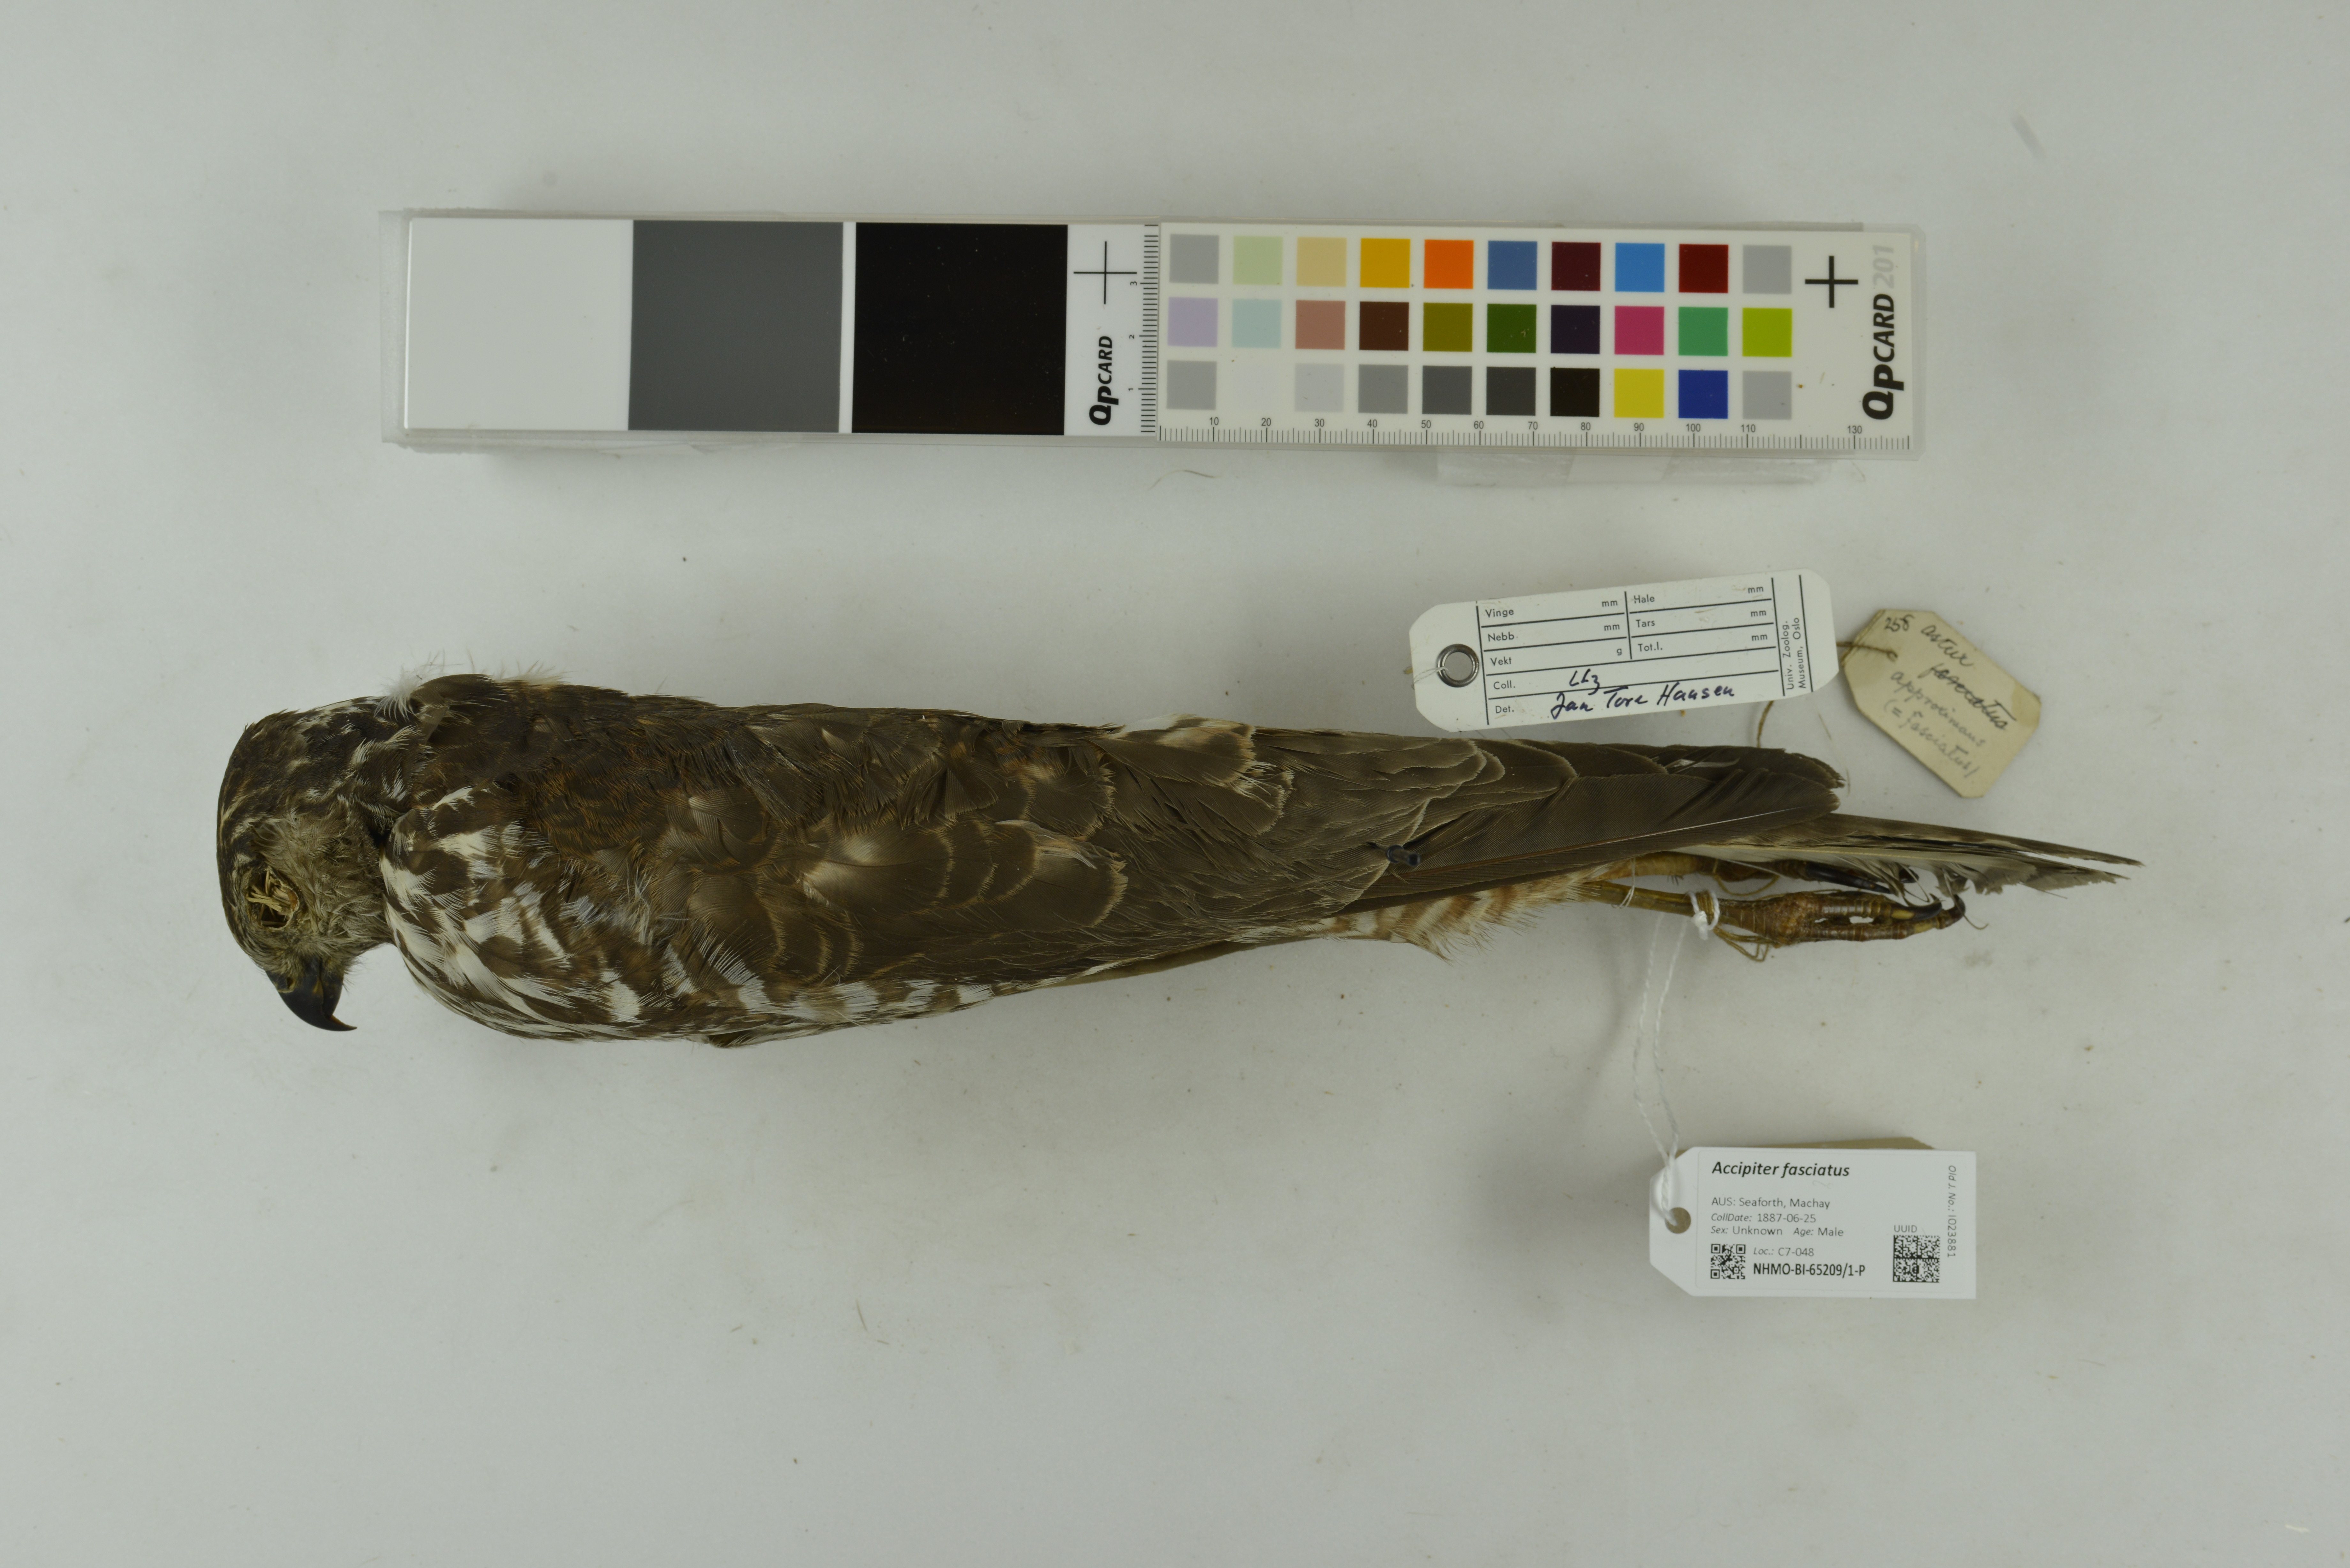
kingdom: Animalia
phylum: Chordata
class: Aves
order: Accipitriformes
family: Accipitridae
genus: Accipiter
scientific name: Accipiter fasciatus
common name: Brown goshawk
